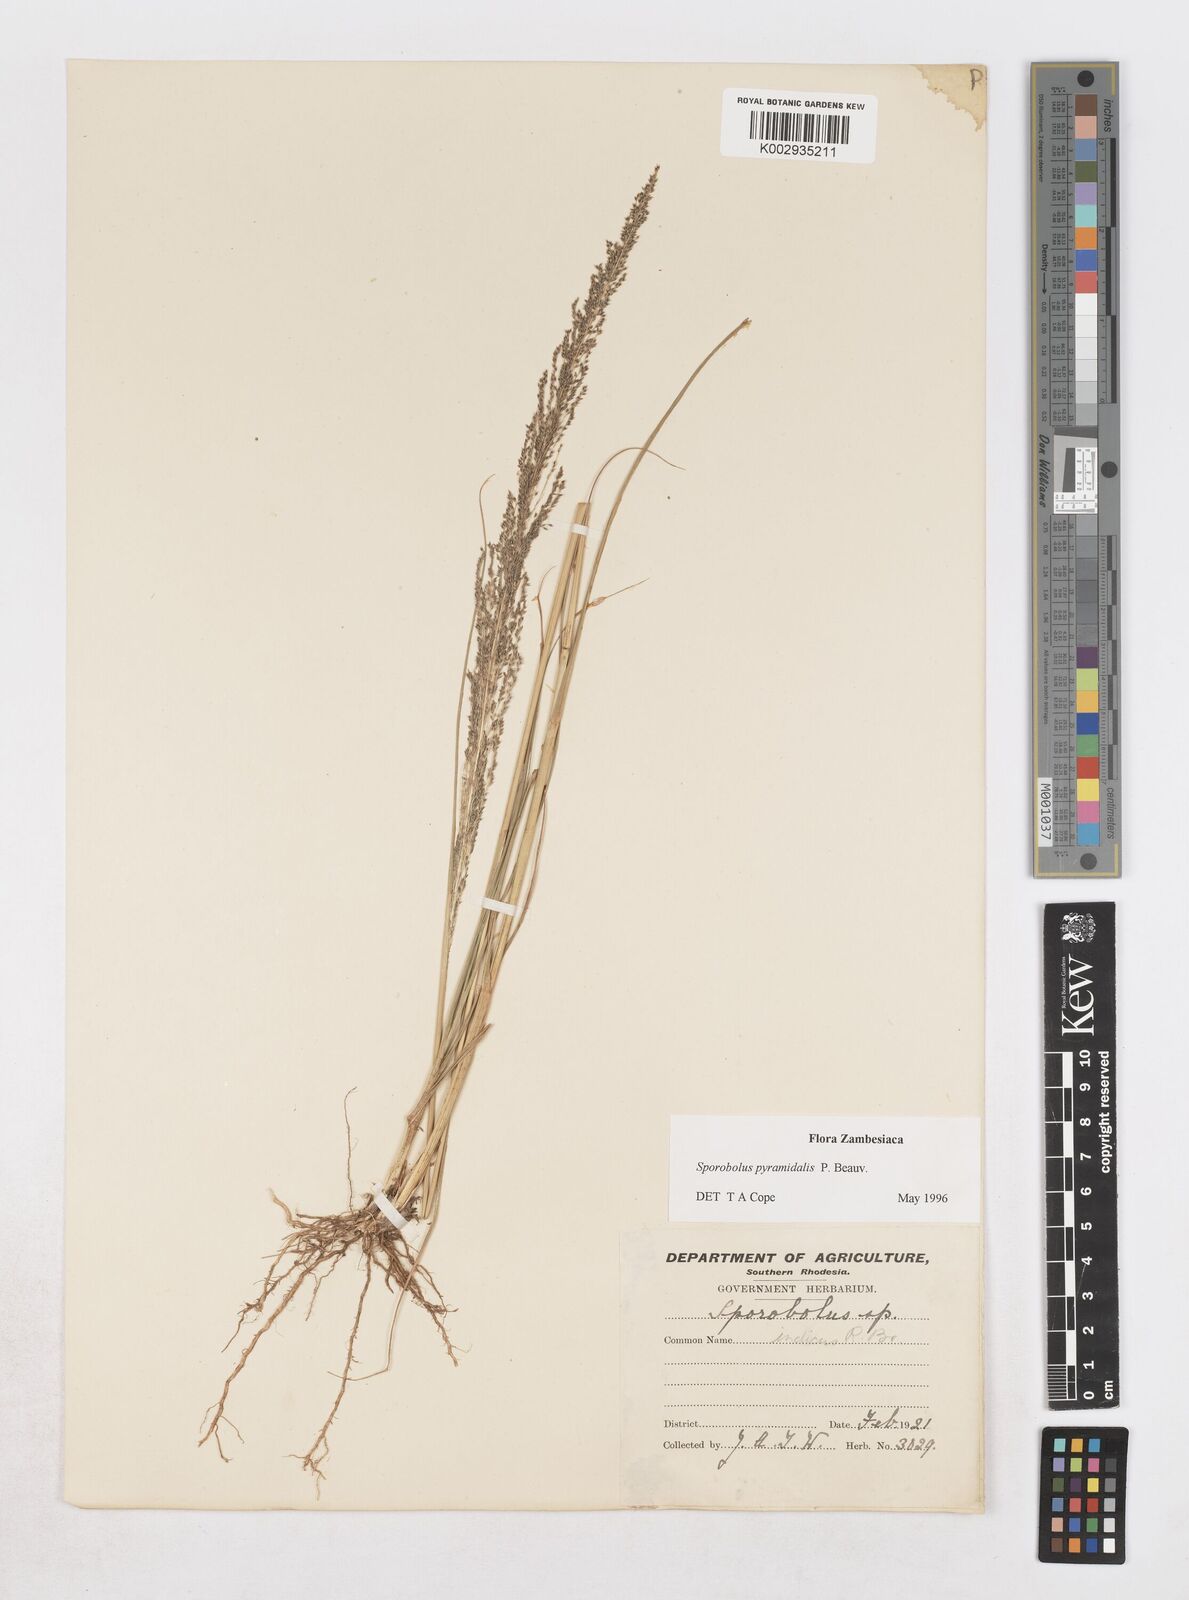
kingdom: Plantae
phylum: Tracheophyta
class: Liliopsida
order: Poales
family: Poaceae
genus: Sporobolus
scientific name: Sporobolus pyramidalis
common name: West indian dropseed
